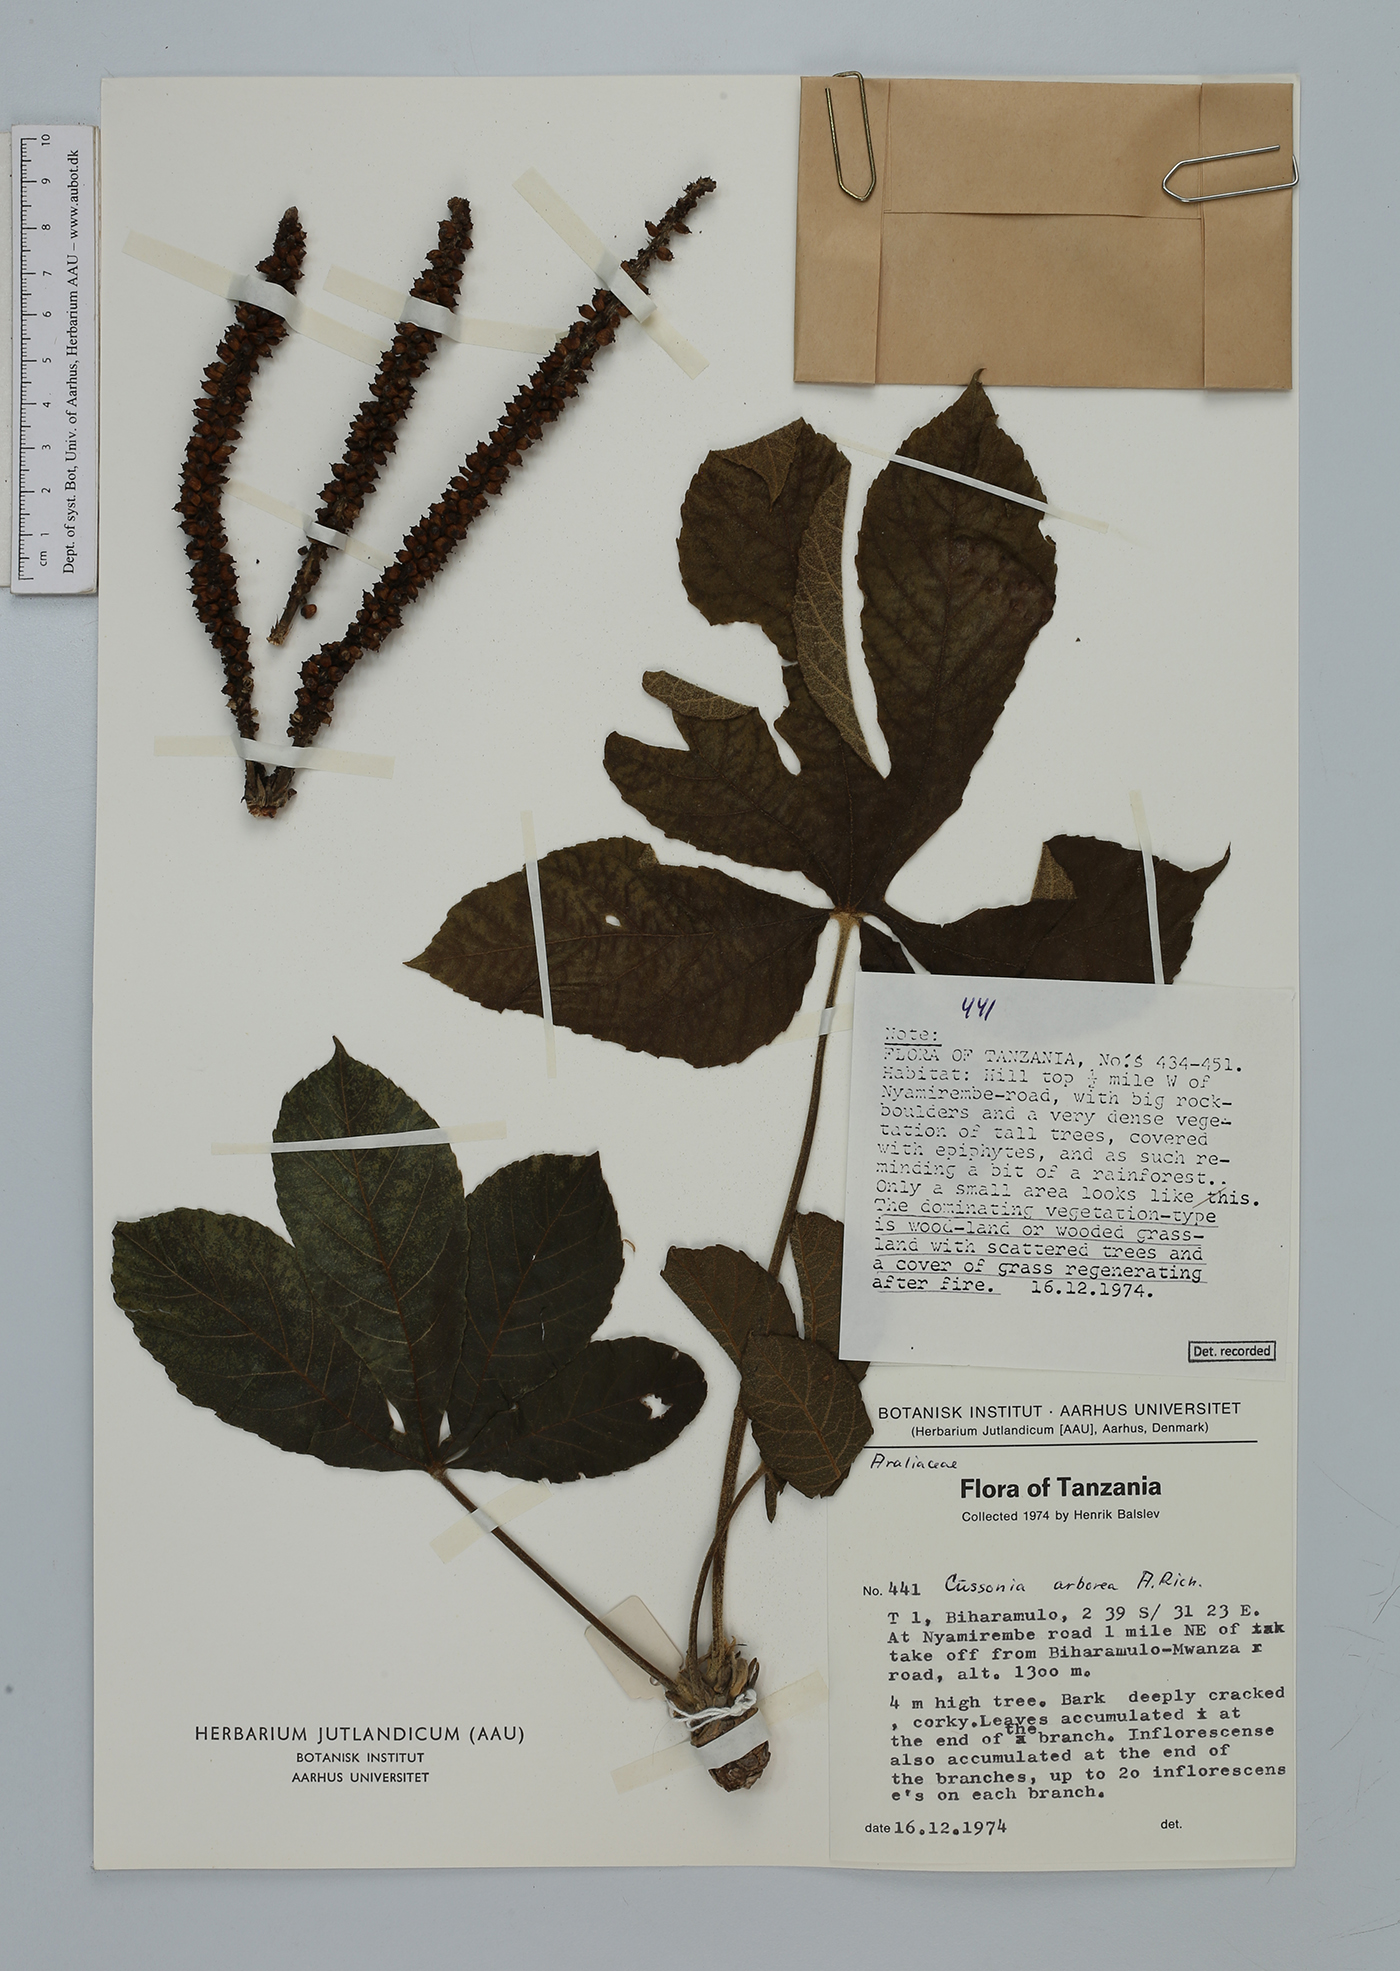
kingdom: Plantae
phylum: Tracheophyta
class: Magnoliopsida
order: Apiales
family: Araliaceae
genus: Cussonia
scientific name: Cussonia arborea
